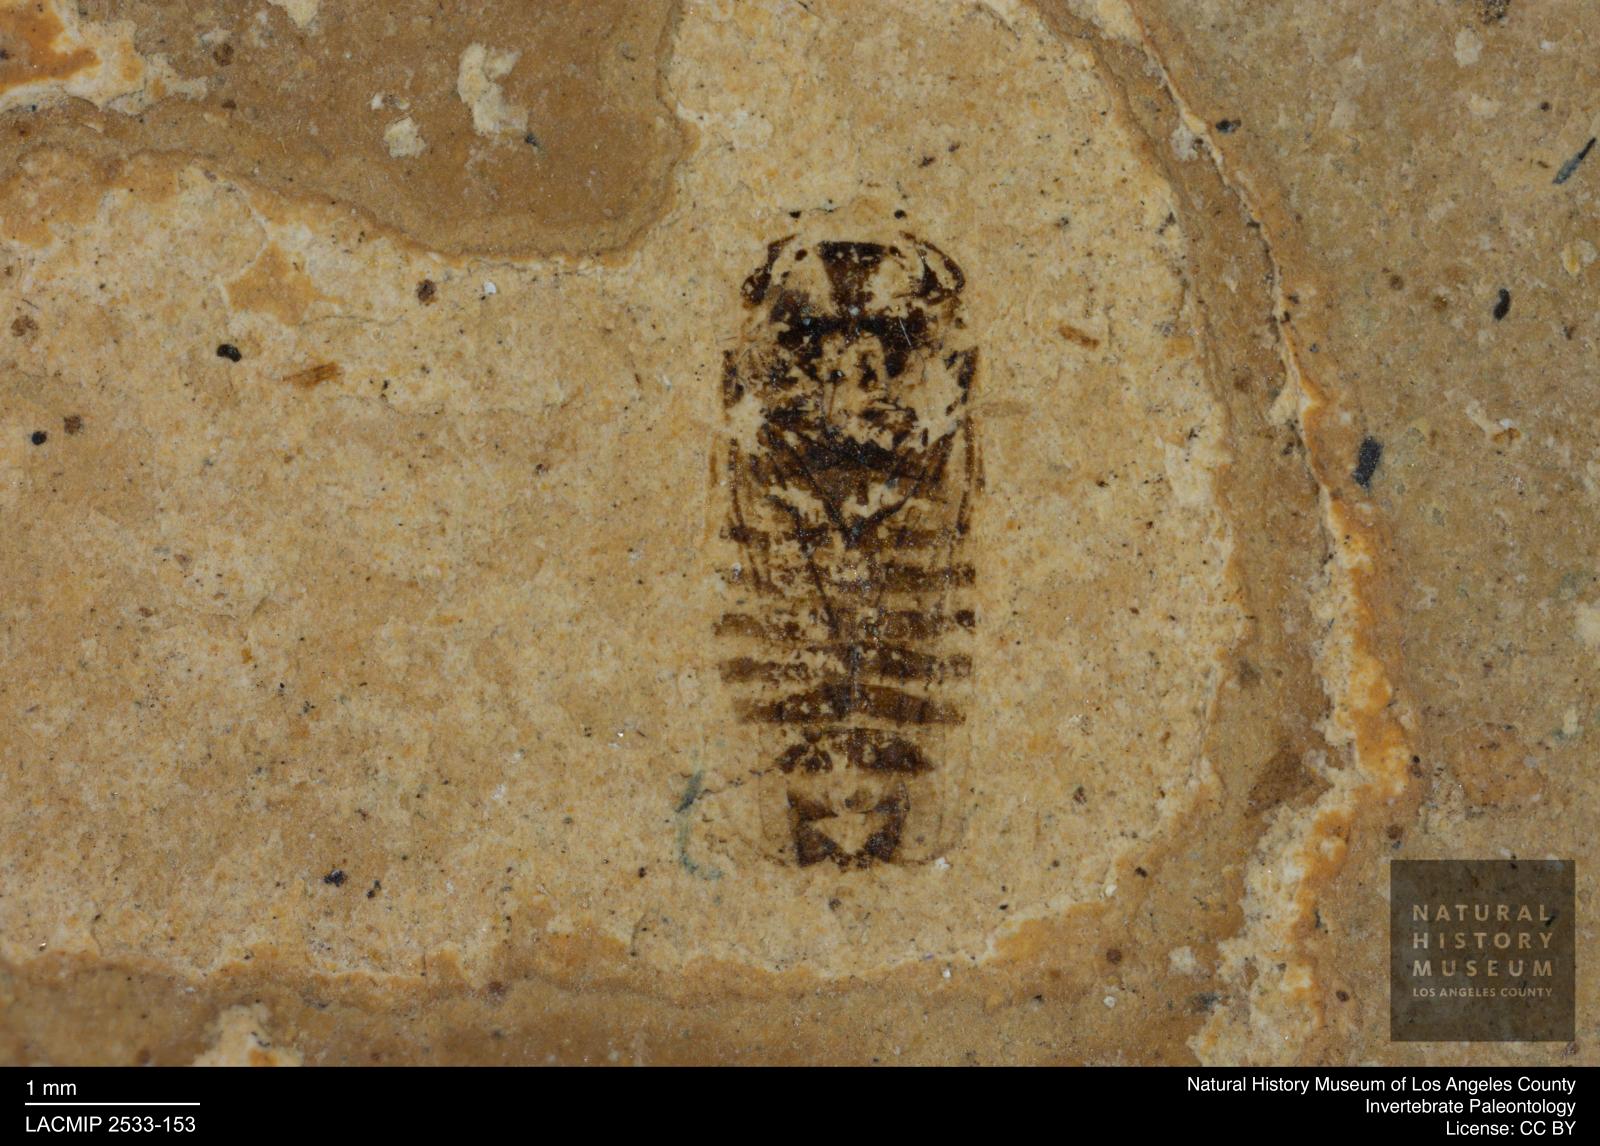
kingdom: Animalia
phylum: Arthropoda
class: Insecta
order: Hemiptera
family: Cicadellidae
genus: Iassus
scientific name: Iassus sepultus
